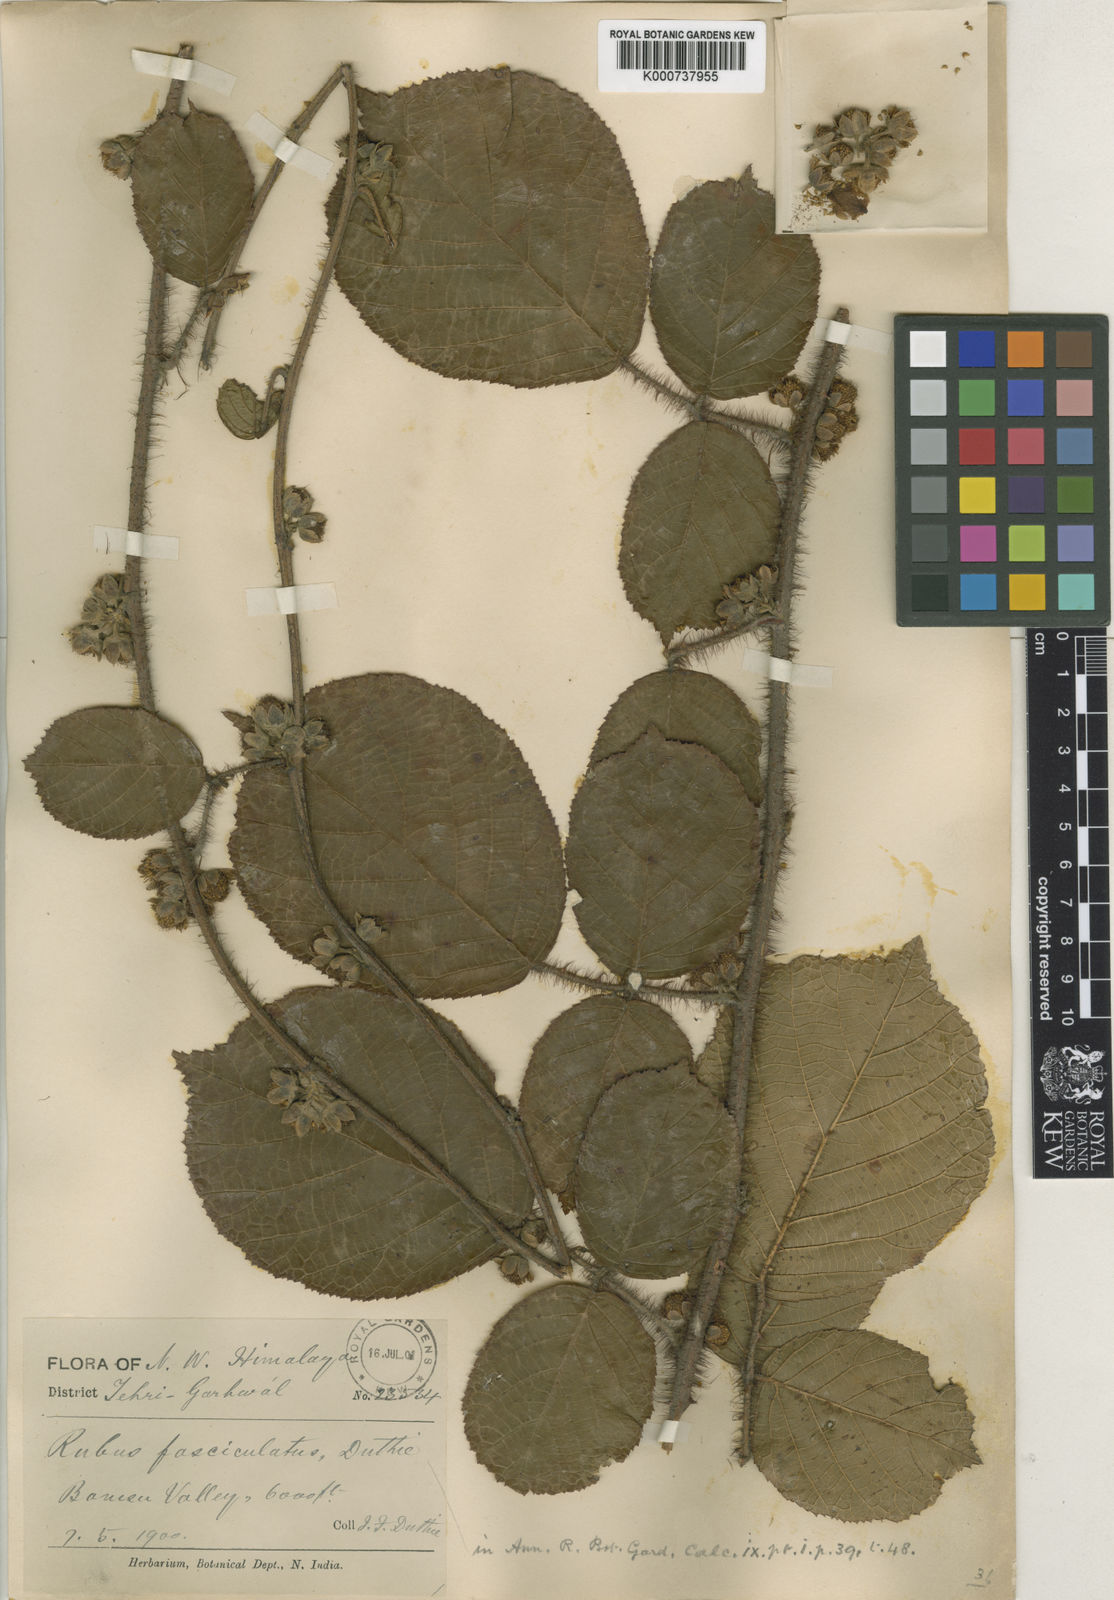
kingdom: Plantae
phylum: Tracheophyta
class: Magnoliopsida
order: Rosales
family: Rosaceae
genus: Rubus
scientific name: Rubus ellipticus
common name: Cheeseberry
